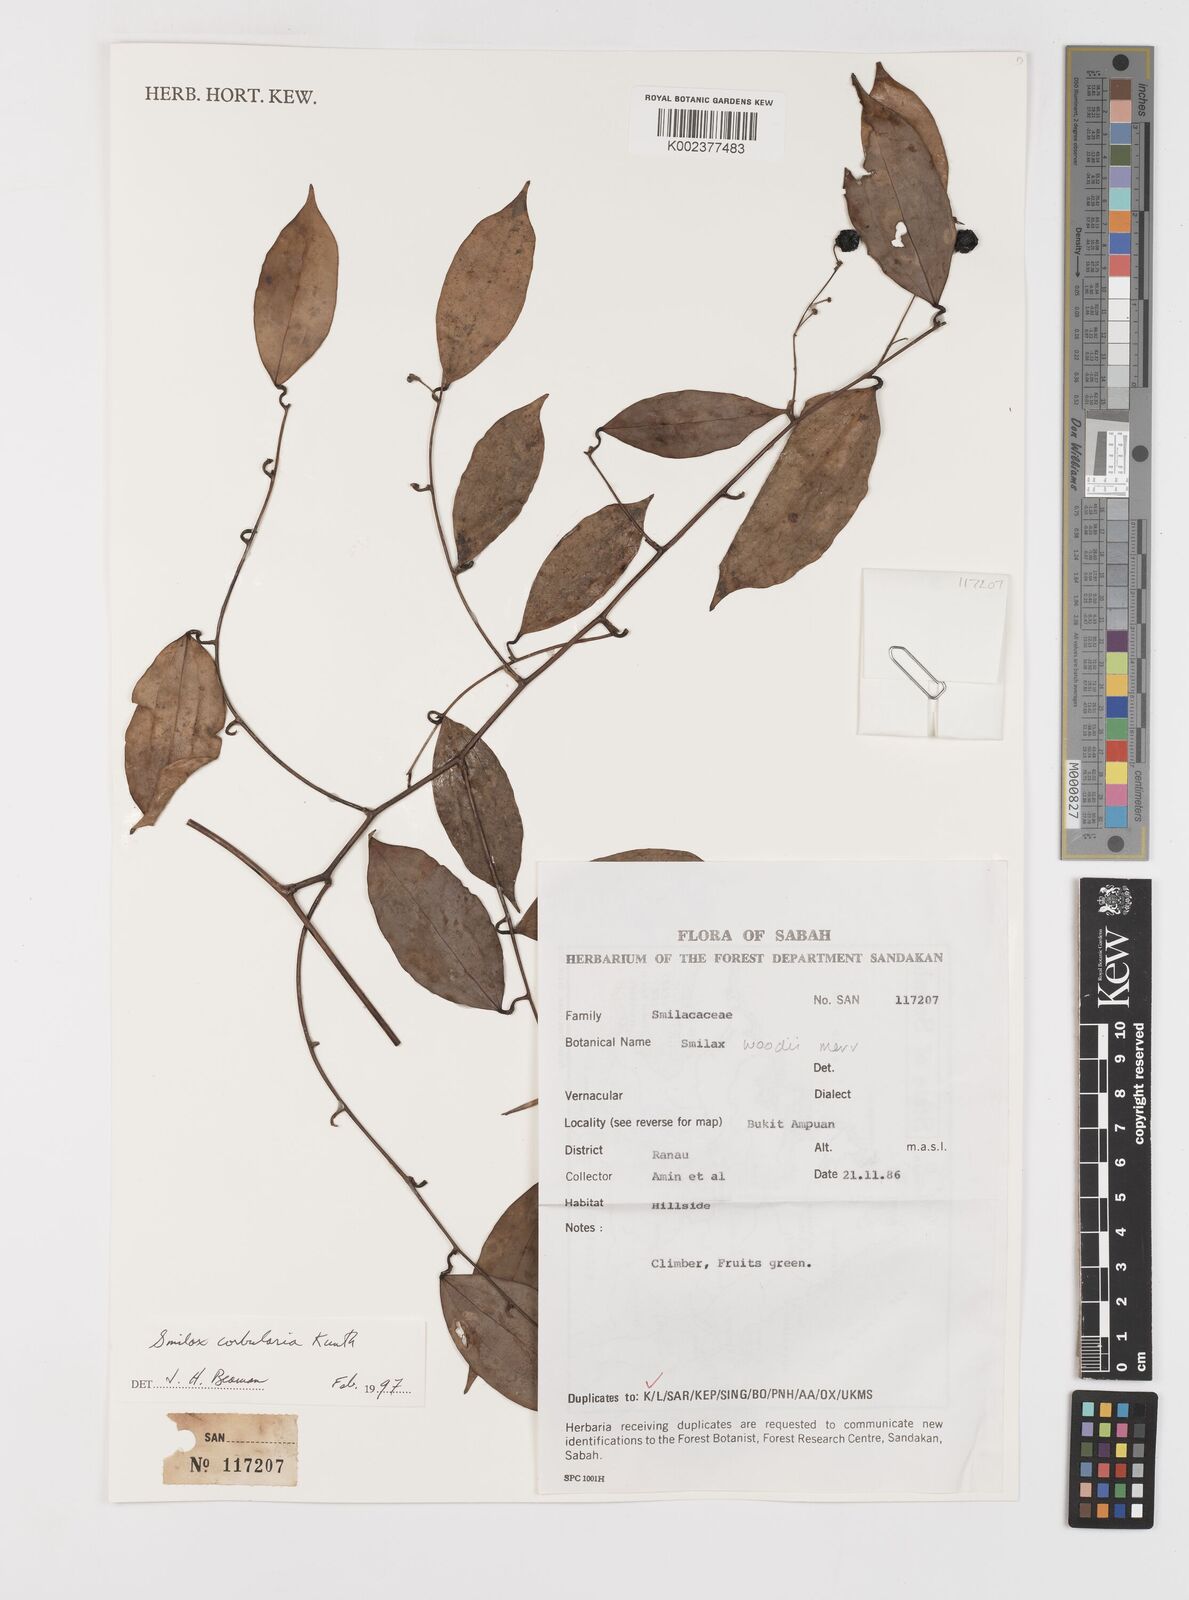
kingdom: Plantae
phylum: Tracheophyta
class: Liliopsida
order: Liliales
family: Smilacaceae
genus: Smilax
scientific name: Smilax corbularia
